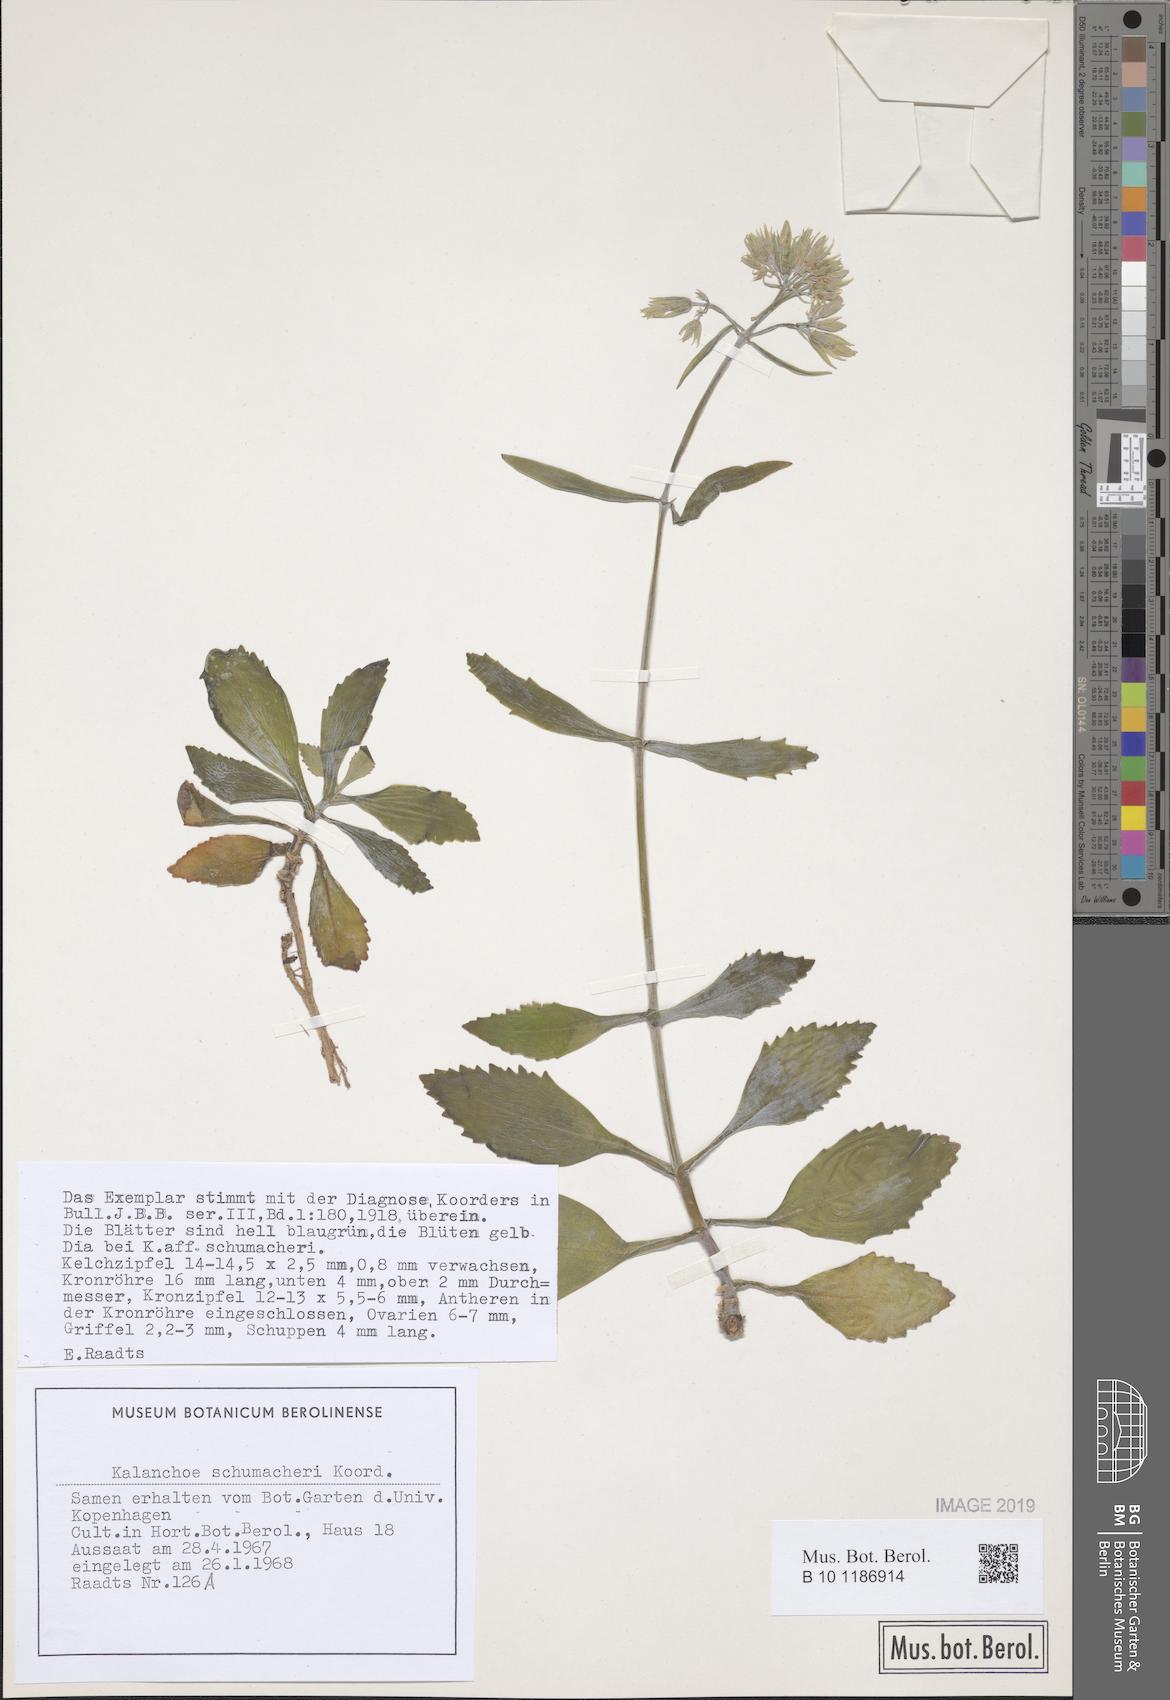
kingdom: Plantae
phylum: Tracheophyta
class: Magnoliopsida
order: Saxifragales
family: Crassulaceae
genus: Kalanchoe
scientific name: Kalanchoe integra
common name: Neverdie
